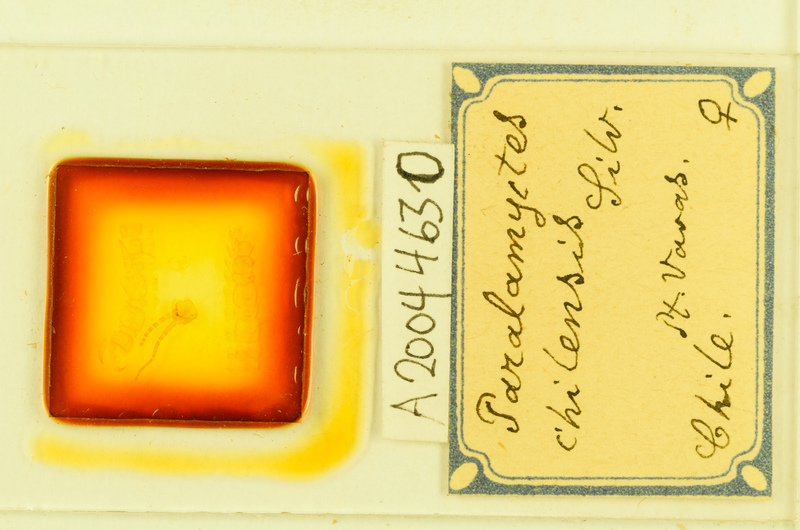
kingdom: Animalia
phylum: Arthropoda
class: Chilopoda
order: Lithobiomorpha
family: Henicopidae
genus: Paralamyctes
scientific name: Paralamyctes chilensis
